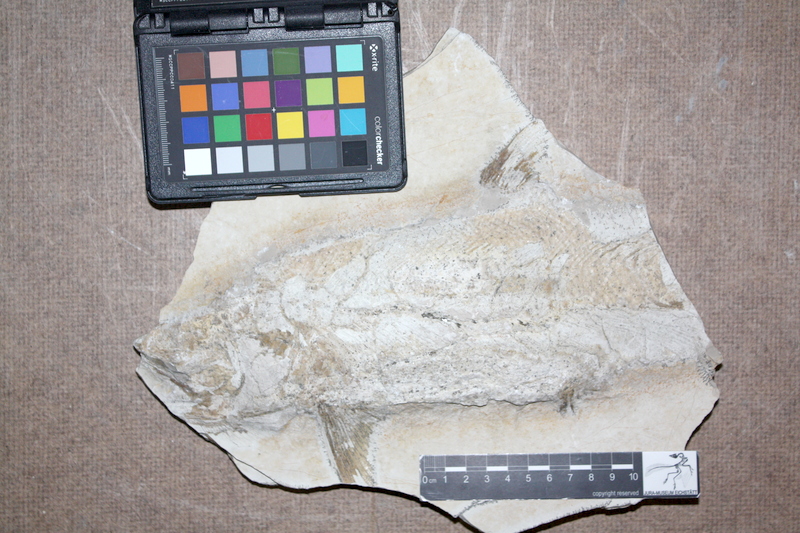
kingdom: Animalia
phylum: Chordata
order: Amiiformes
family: Caturidae
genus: Caturus
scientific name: Caturus
